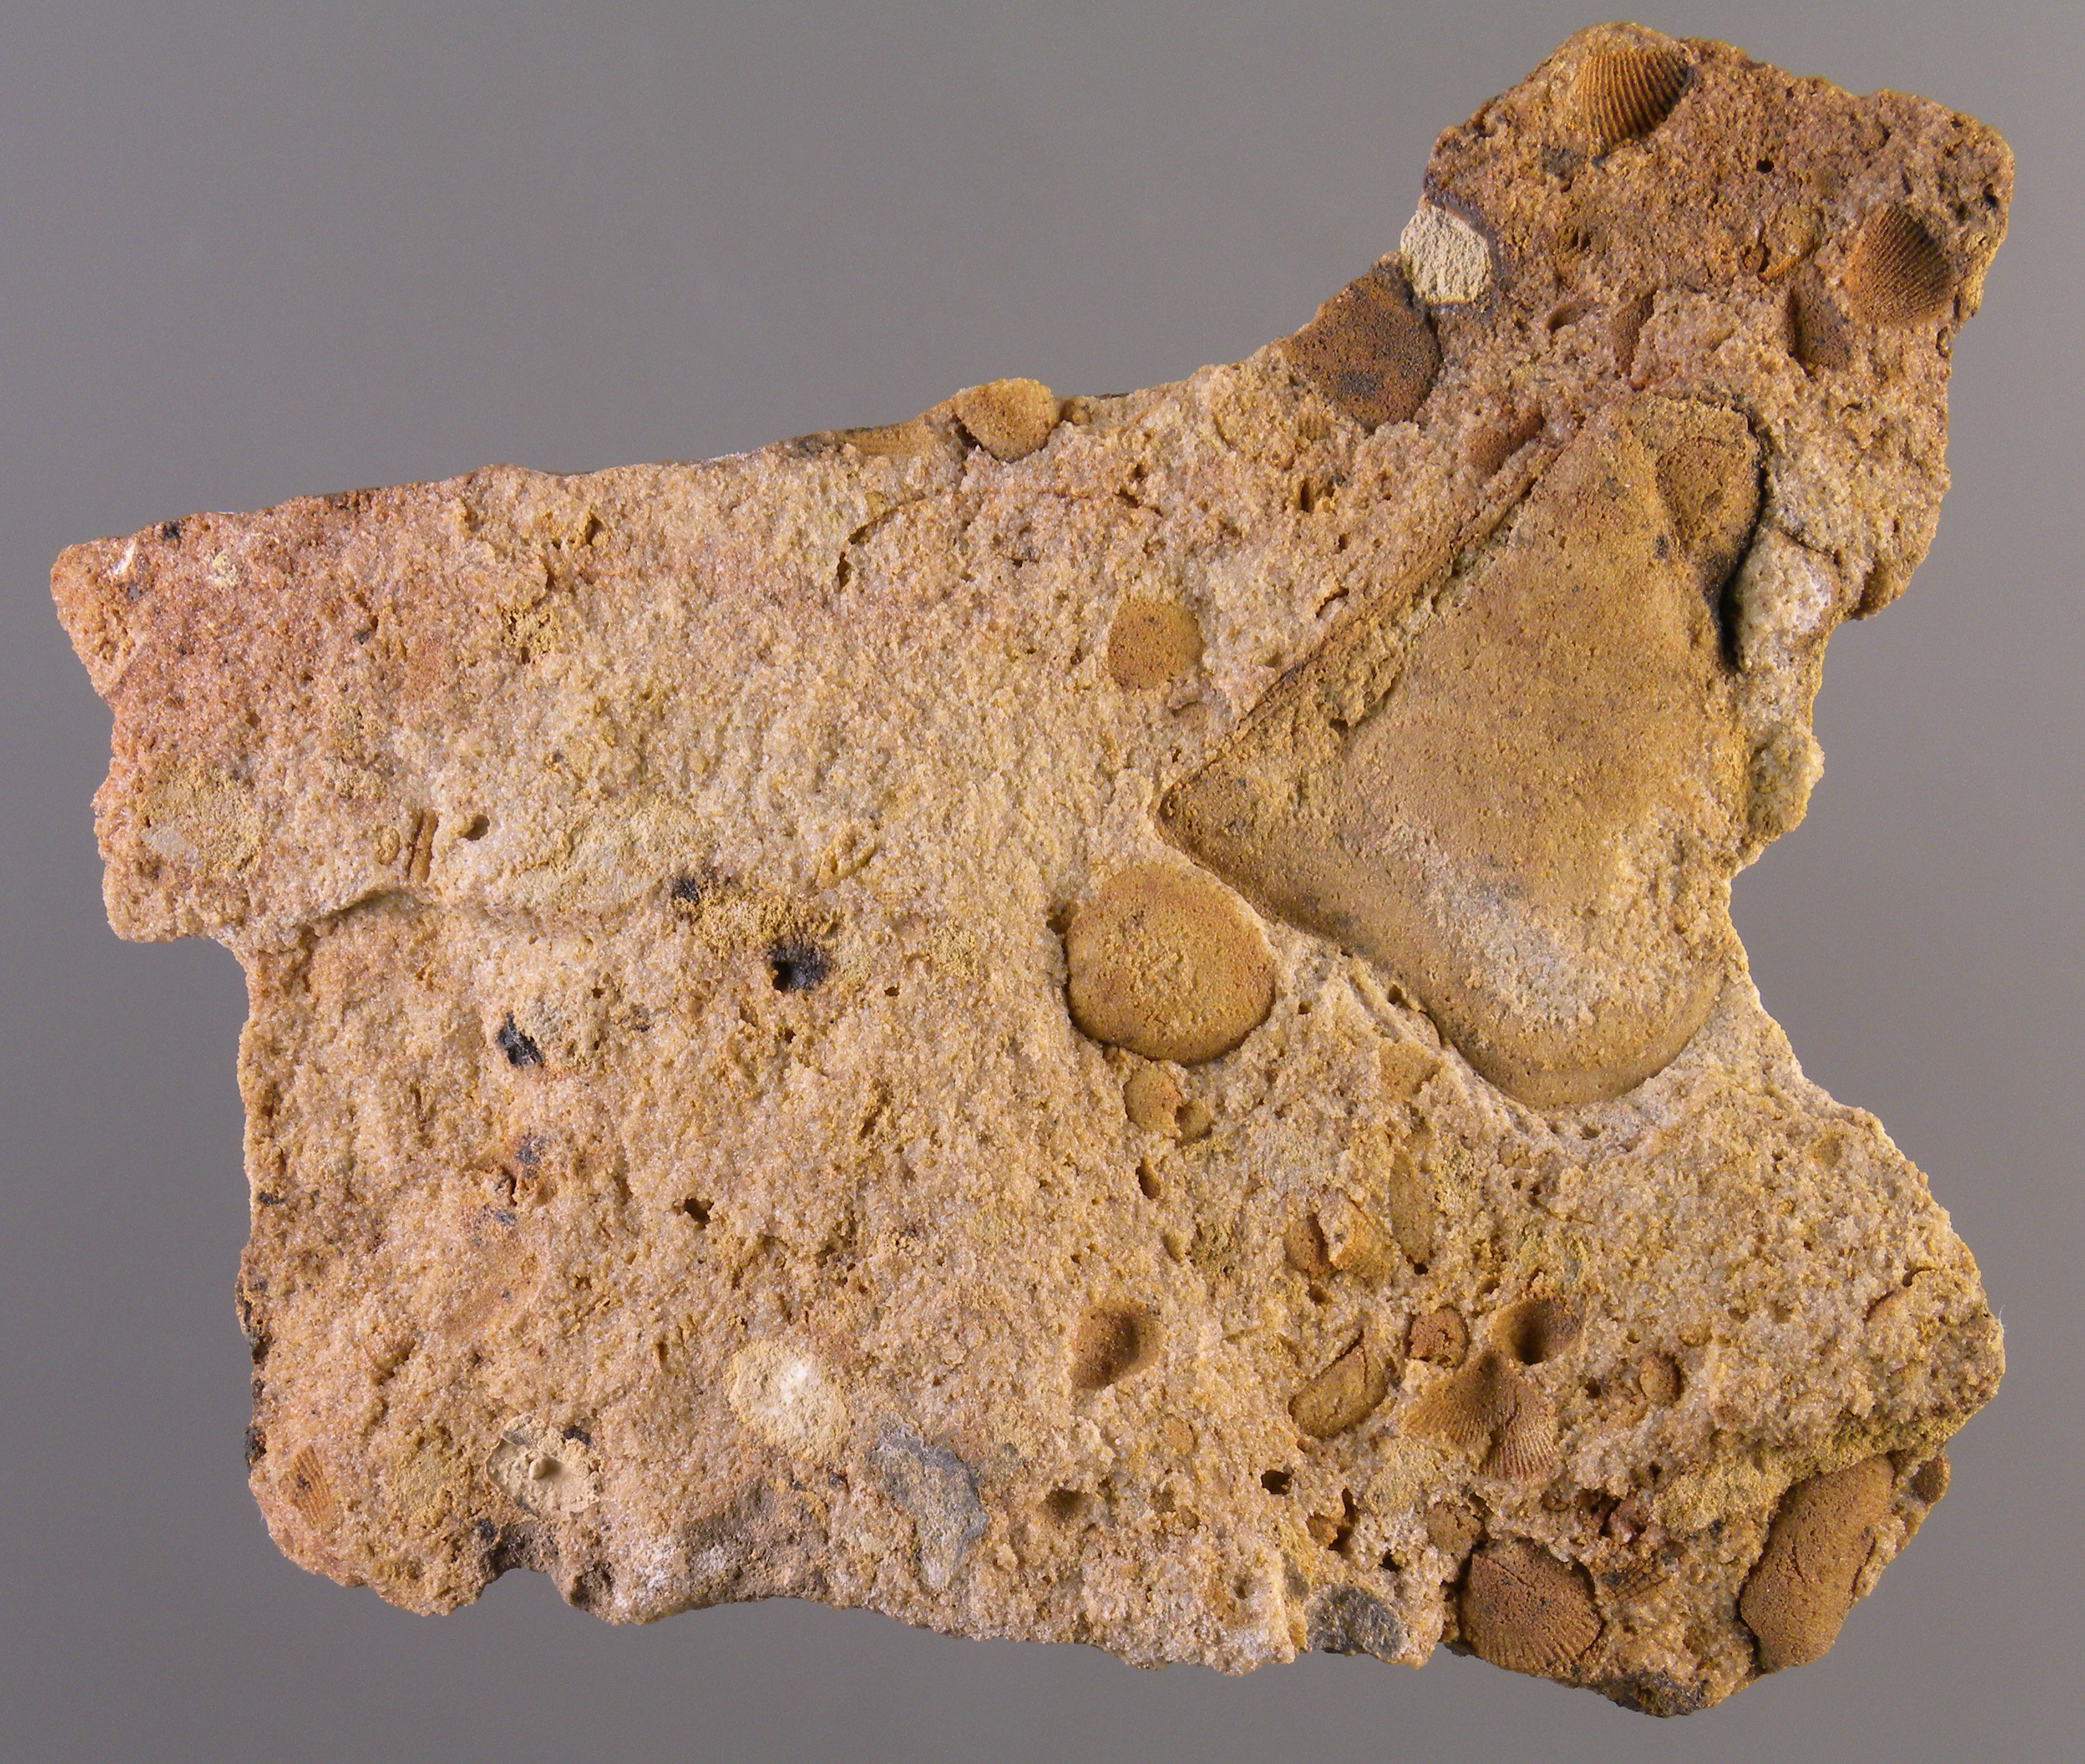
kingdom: Animalia
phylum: Mollusca
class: Bivalvia
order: Ostreida
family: Pterineidae
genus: Ptychopteria
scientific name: Ptychopteria
